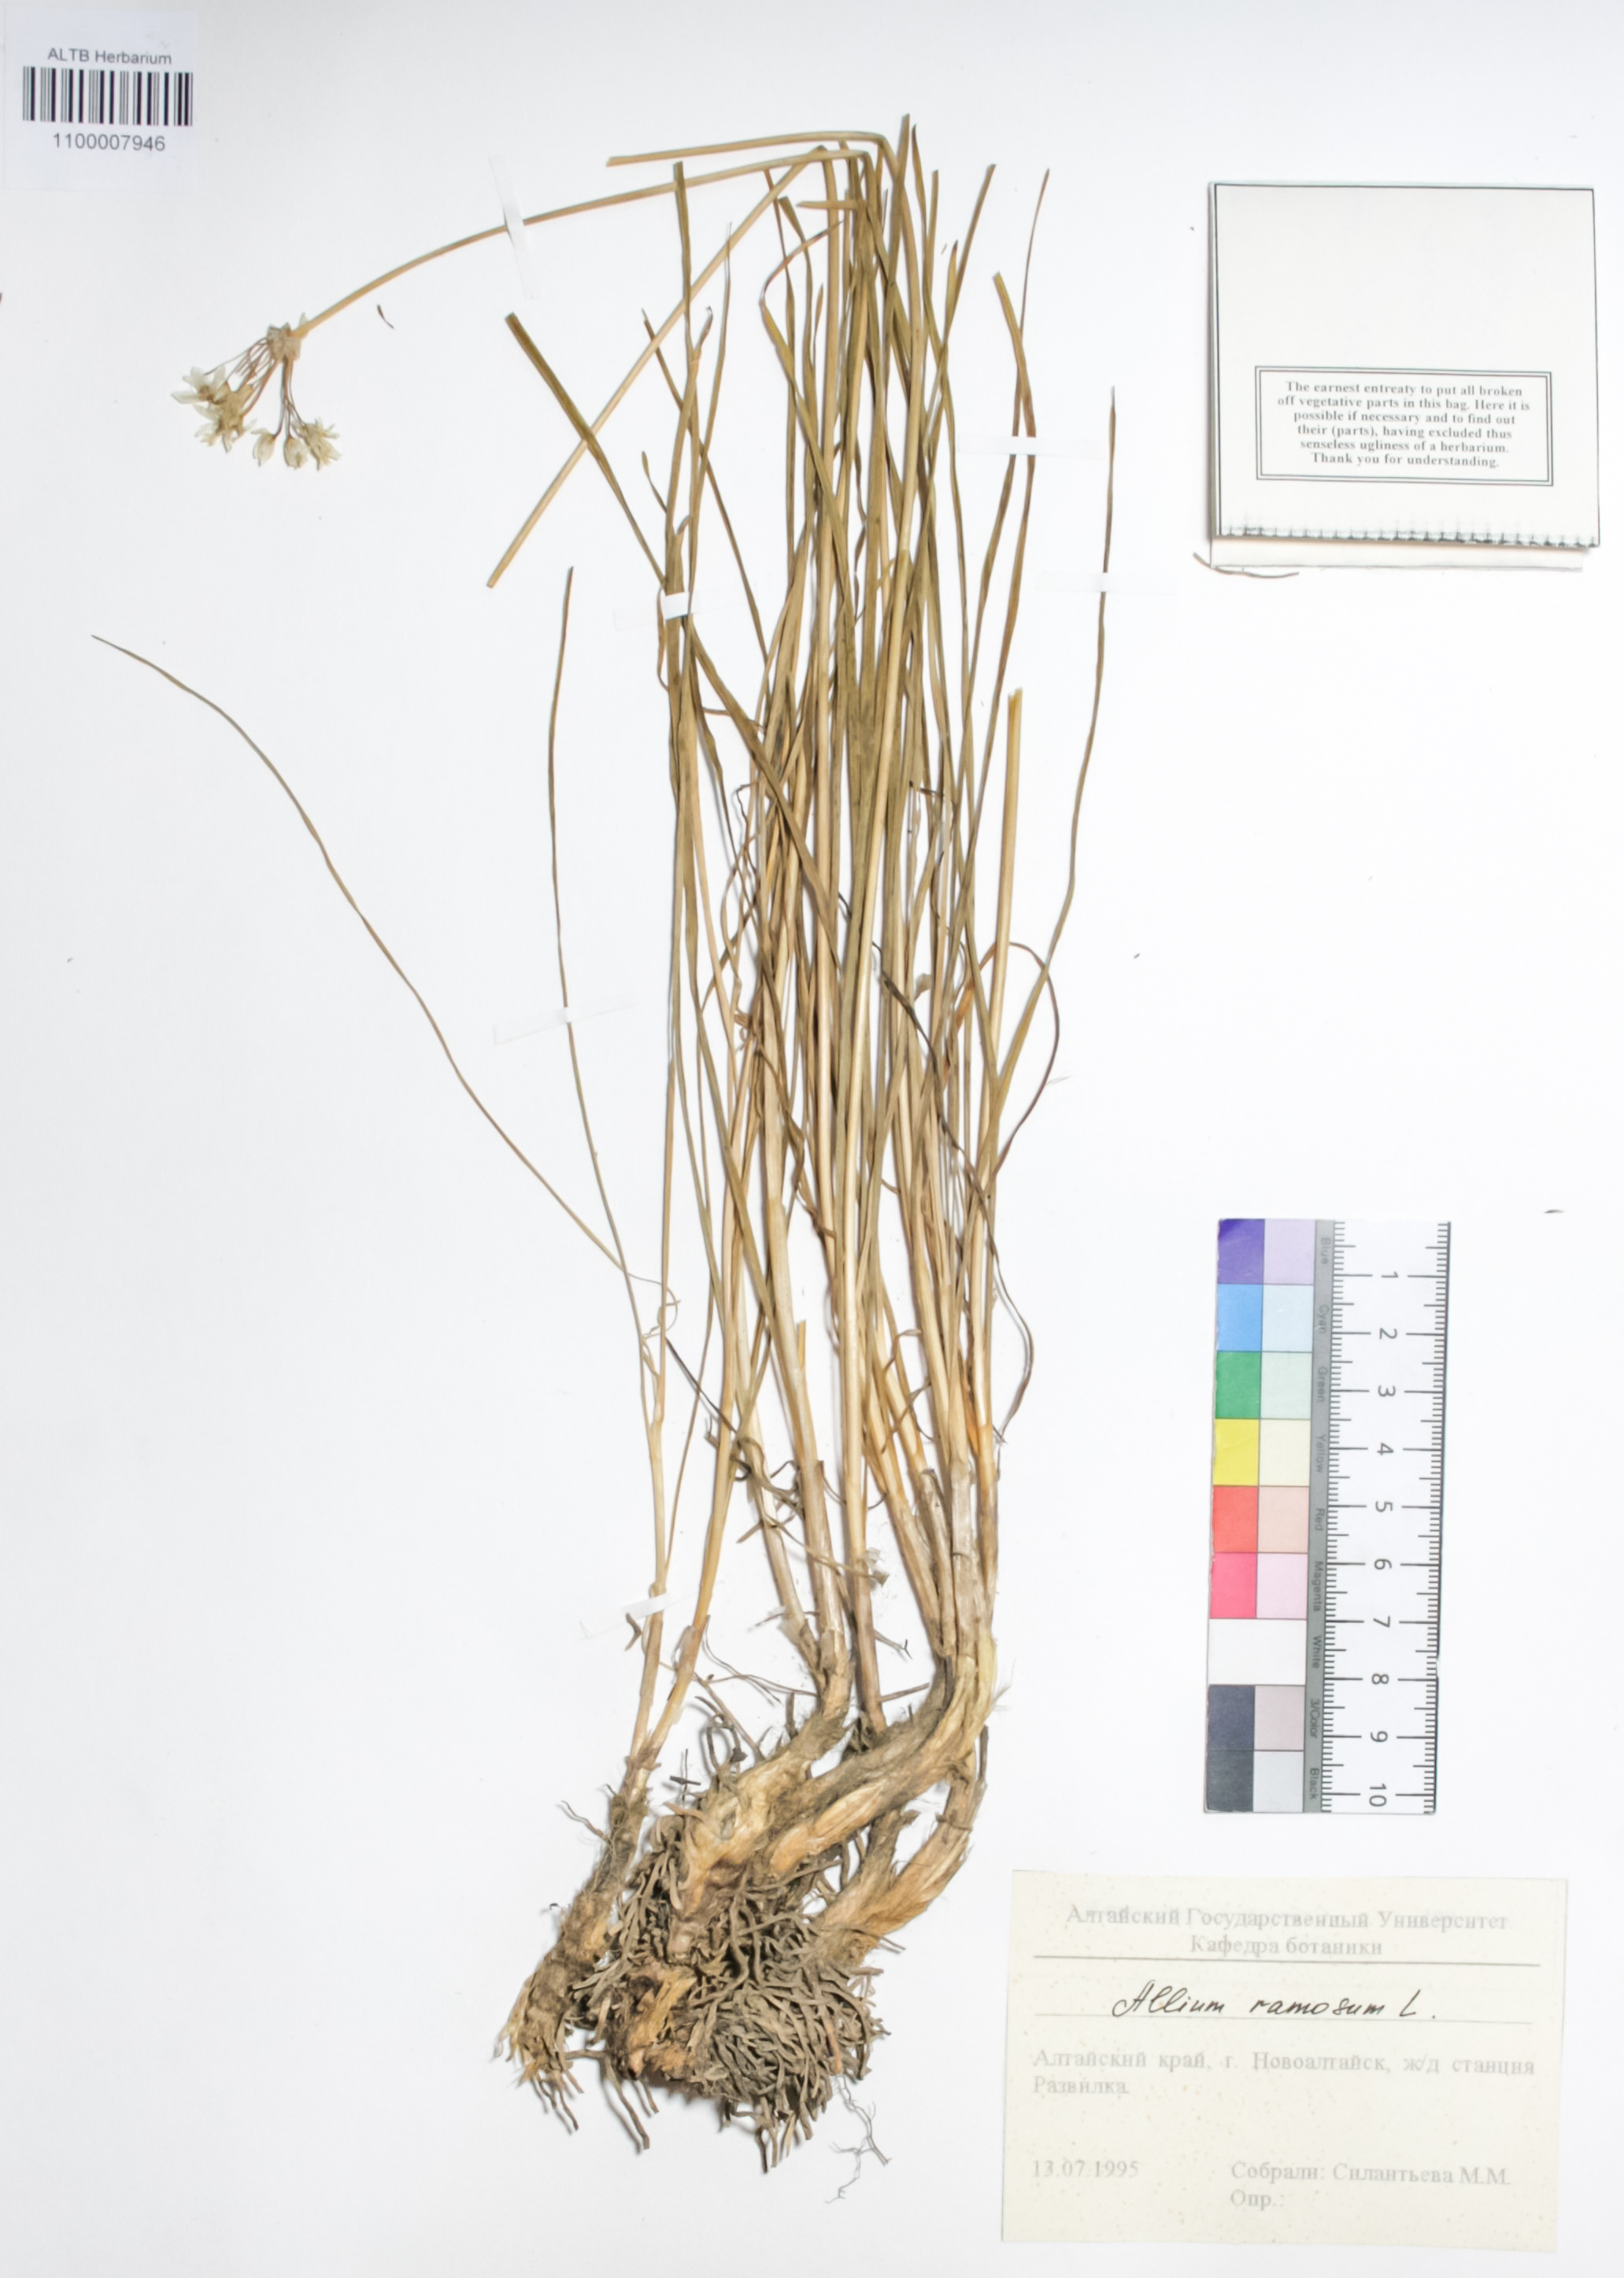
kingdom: Plantae
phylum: Tracheophyta
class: Liliopsida
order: Asparagales
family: Amaryllidaceae
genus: Allium
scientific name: Allium ramosum
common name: Fragrant garlic
